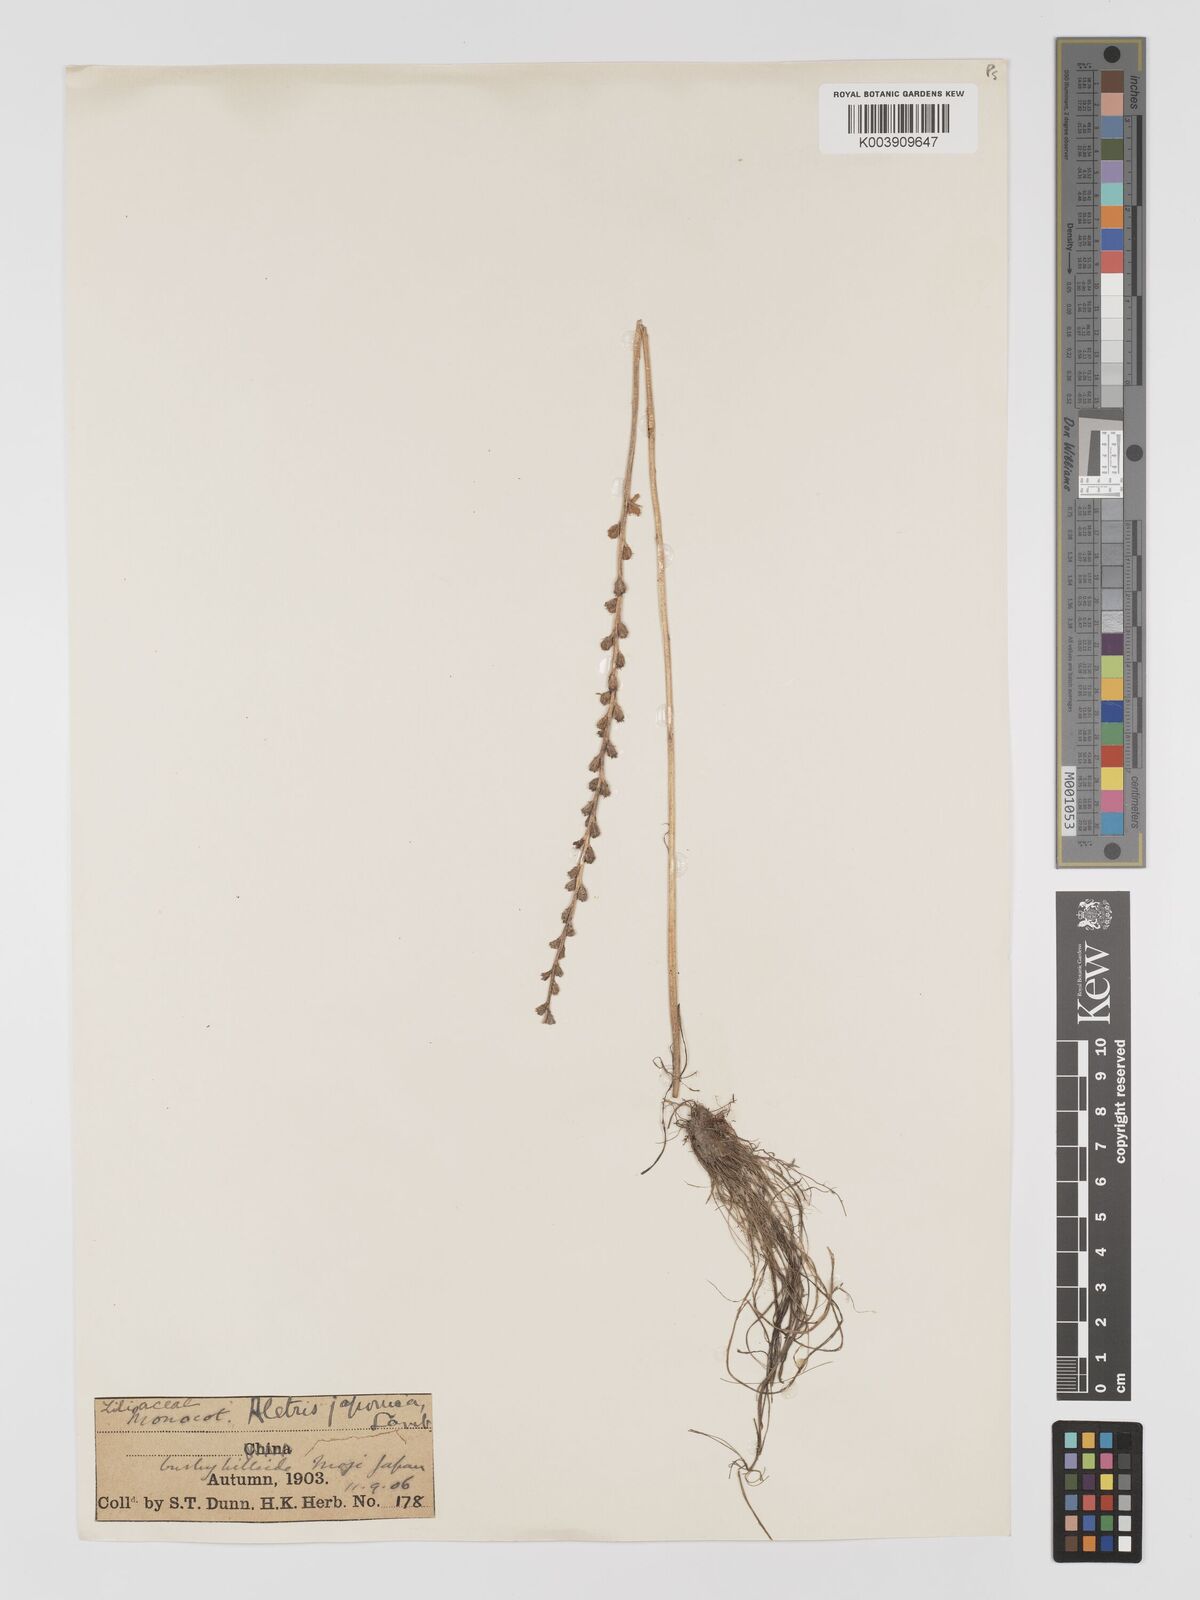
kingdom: Plantae
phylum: Tracheophyta
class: Liliopsida
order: Dioscoreales
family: Nartheciaceae
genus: Aletris
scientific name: Aletris spicata
